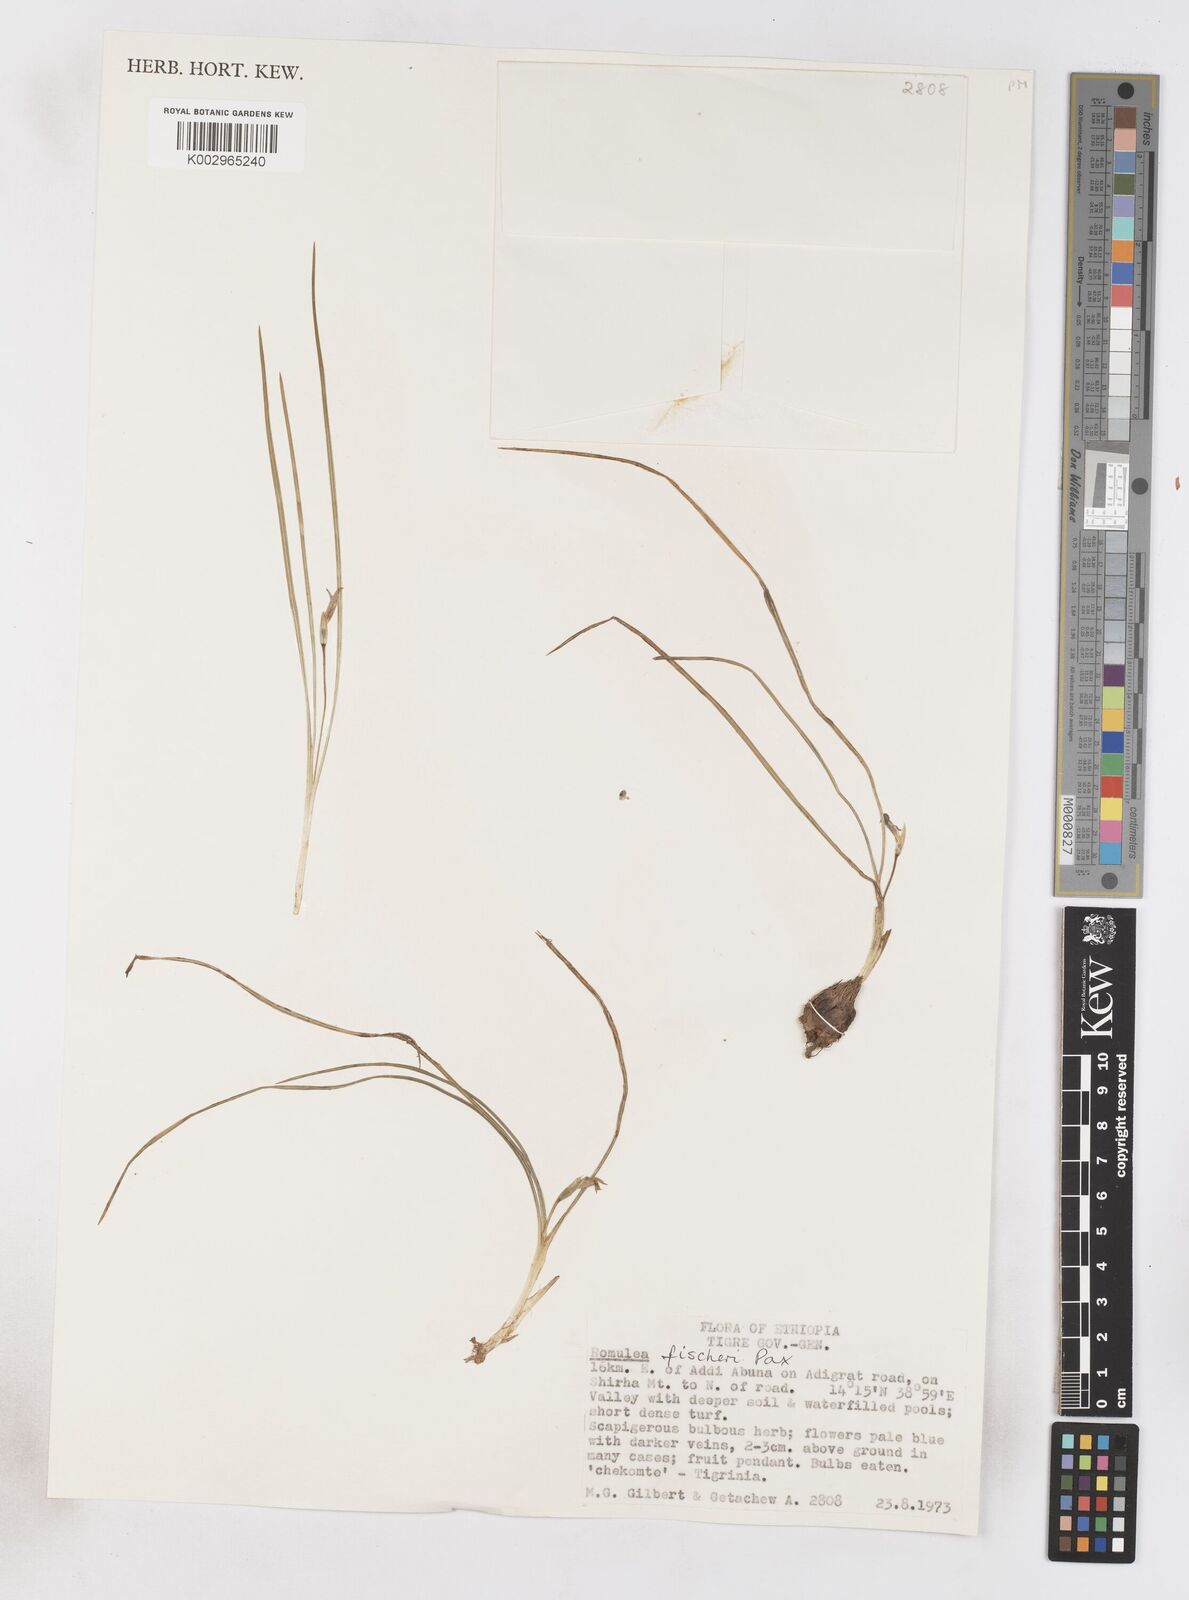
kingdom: Plantae
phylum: Tracheophyta
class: Liliopsida
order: Asparagales
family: Iridaceae
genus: Romulea
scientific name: Romulea fischeri
